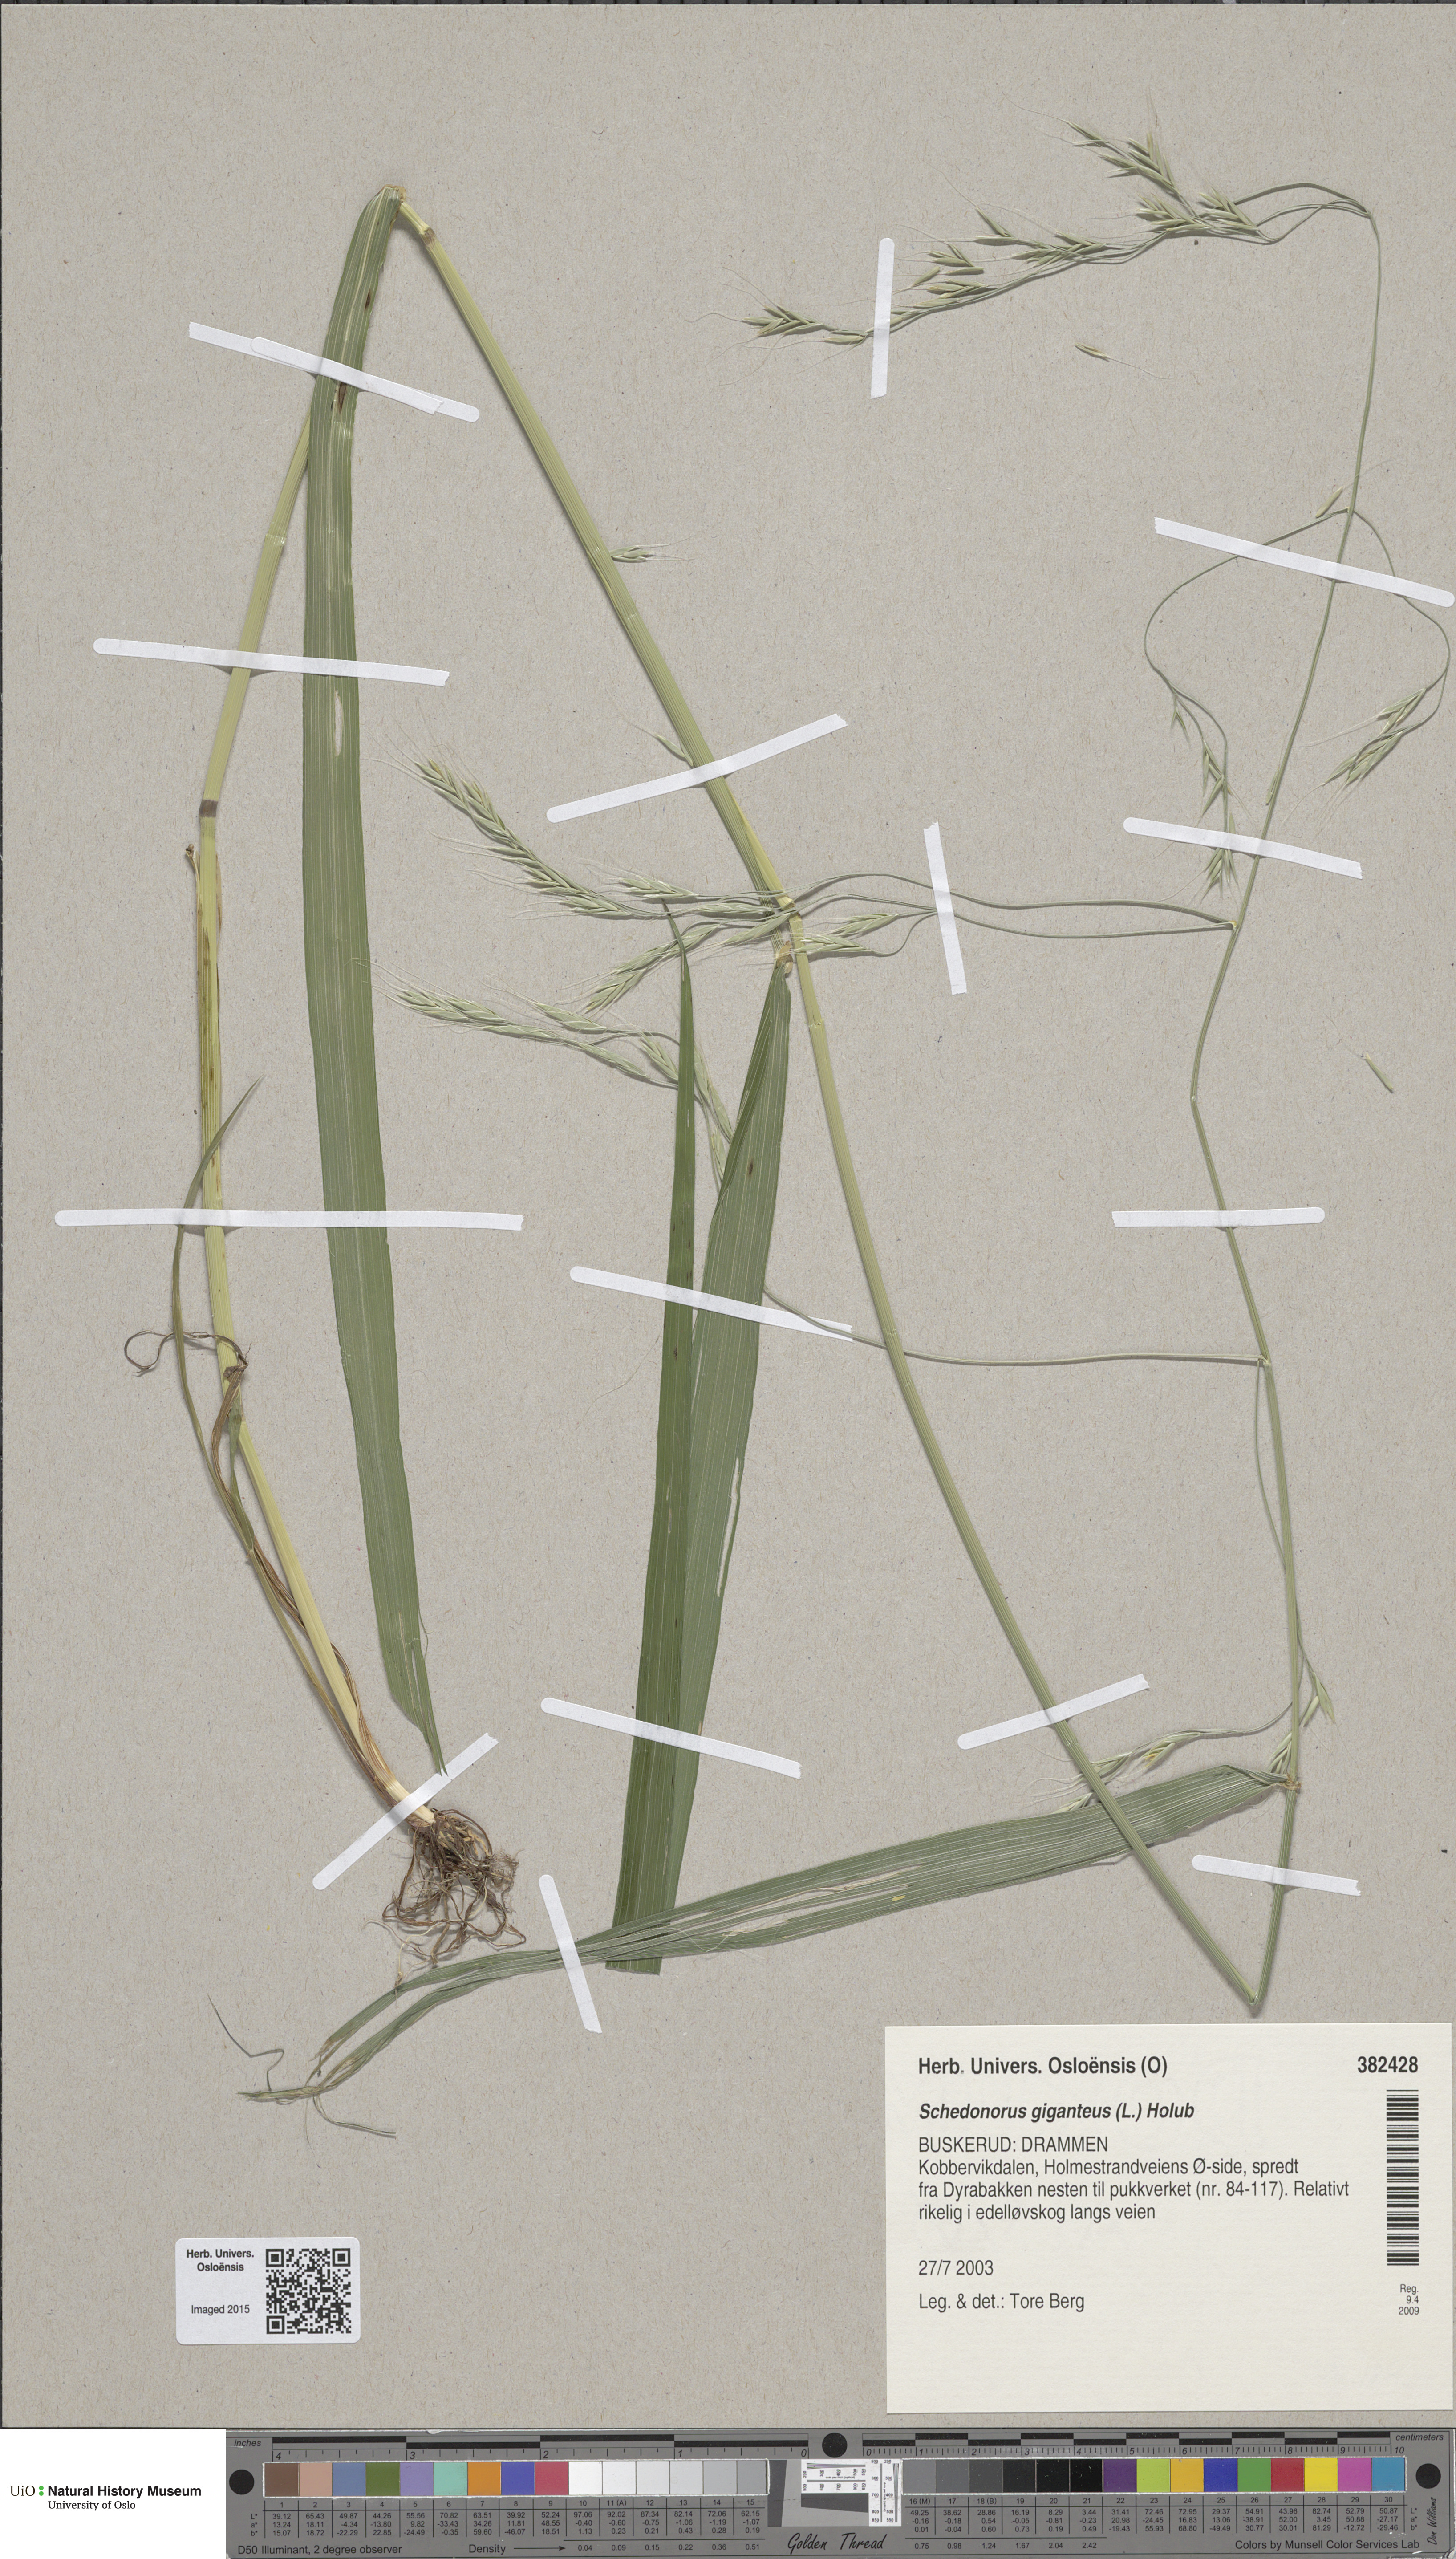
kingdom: Plantae
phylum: Tracheophyta
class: Liliopsida
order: Poales
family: Poaceae
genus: Lolium
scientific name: Lolium giganteum
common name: Giant fescue
